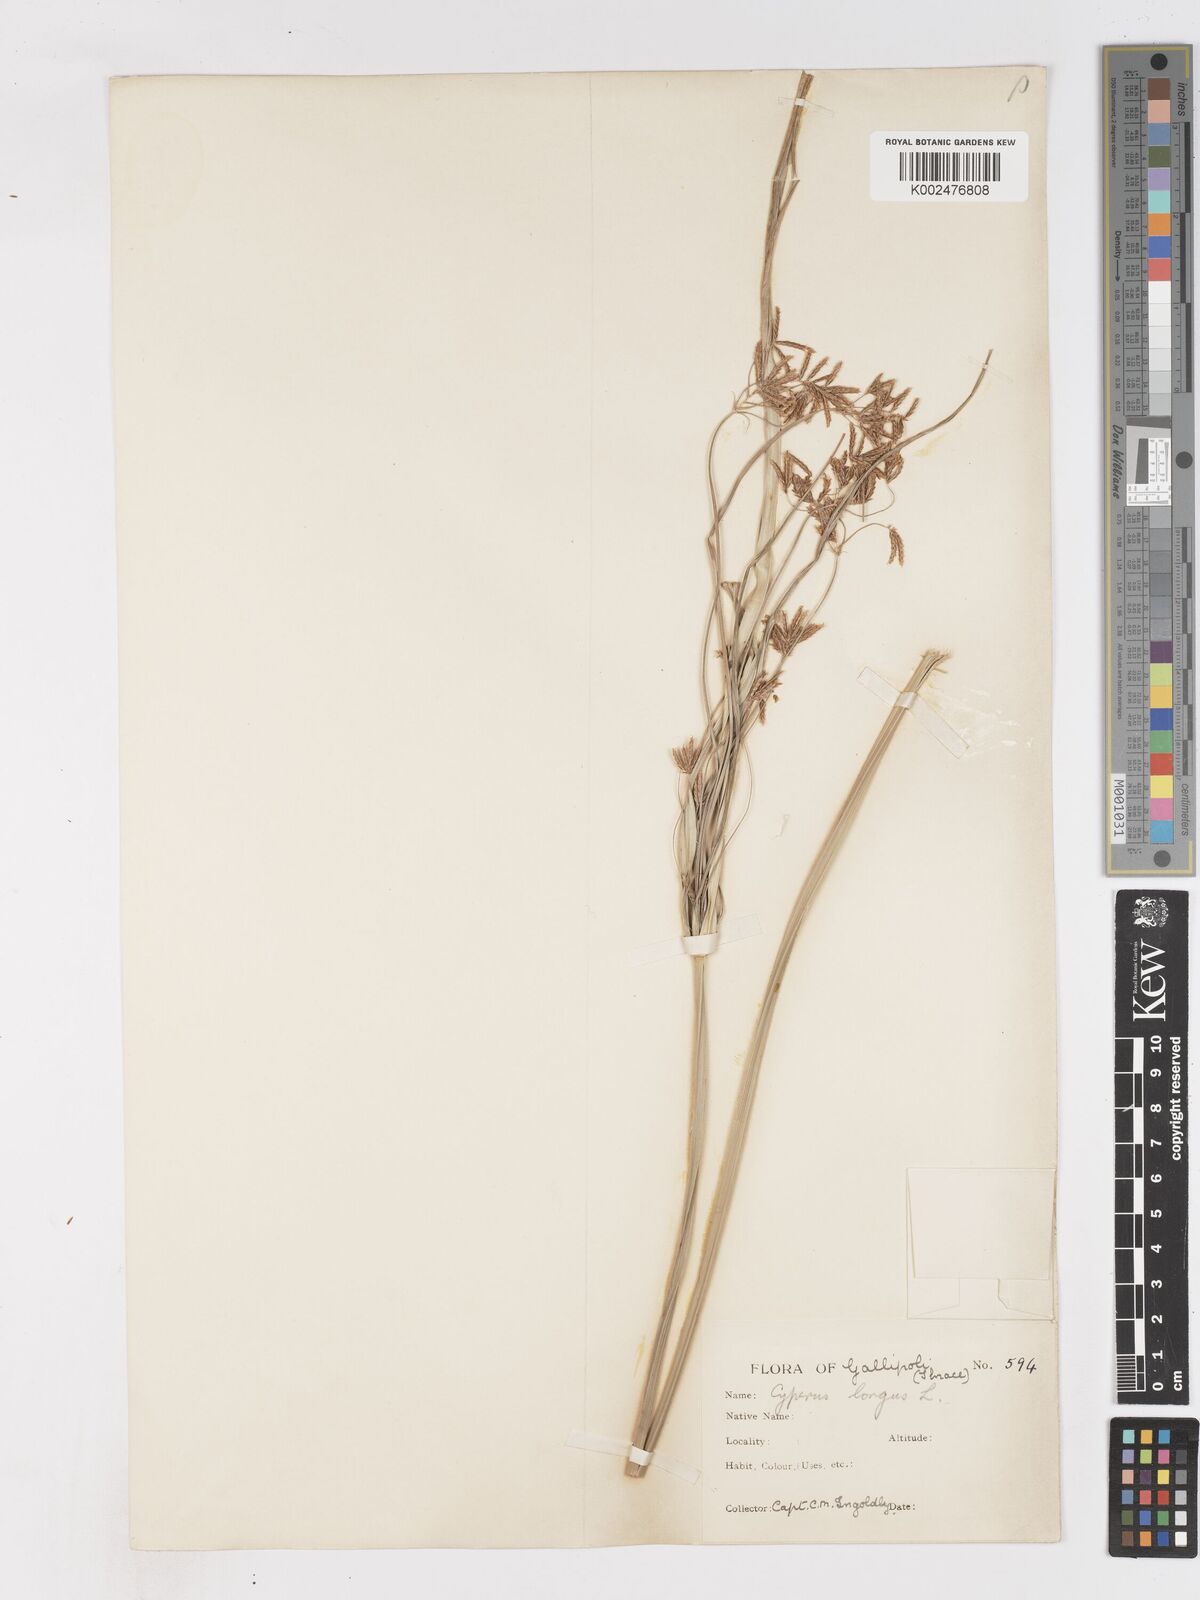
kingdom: Plantae
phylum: Tracheophyta
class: Liliopsida
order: Poales
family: Cyperaceae
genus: Cyperus
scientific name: Cyperus longus
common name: Galingale
